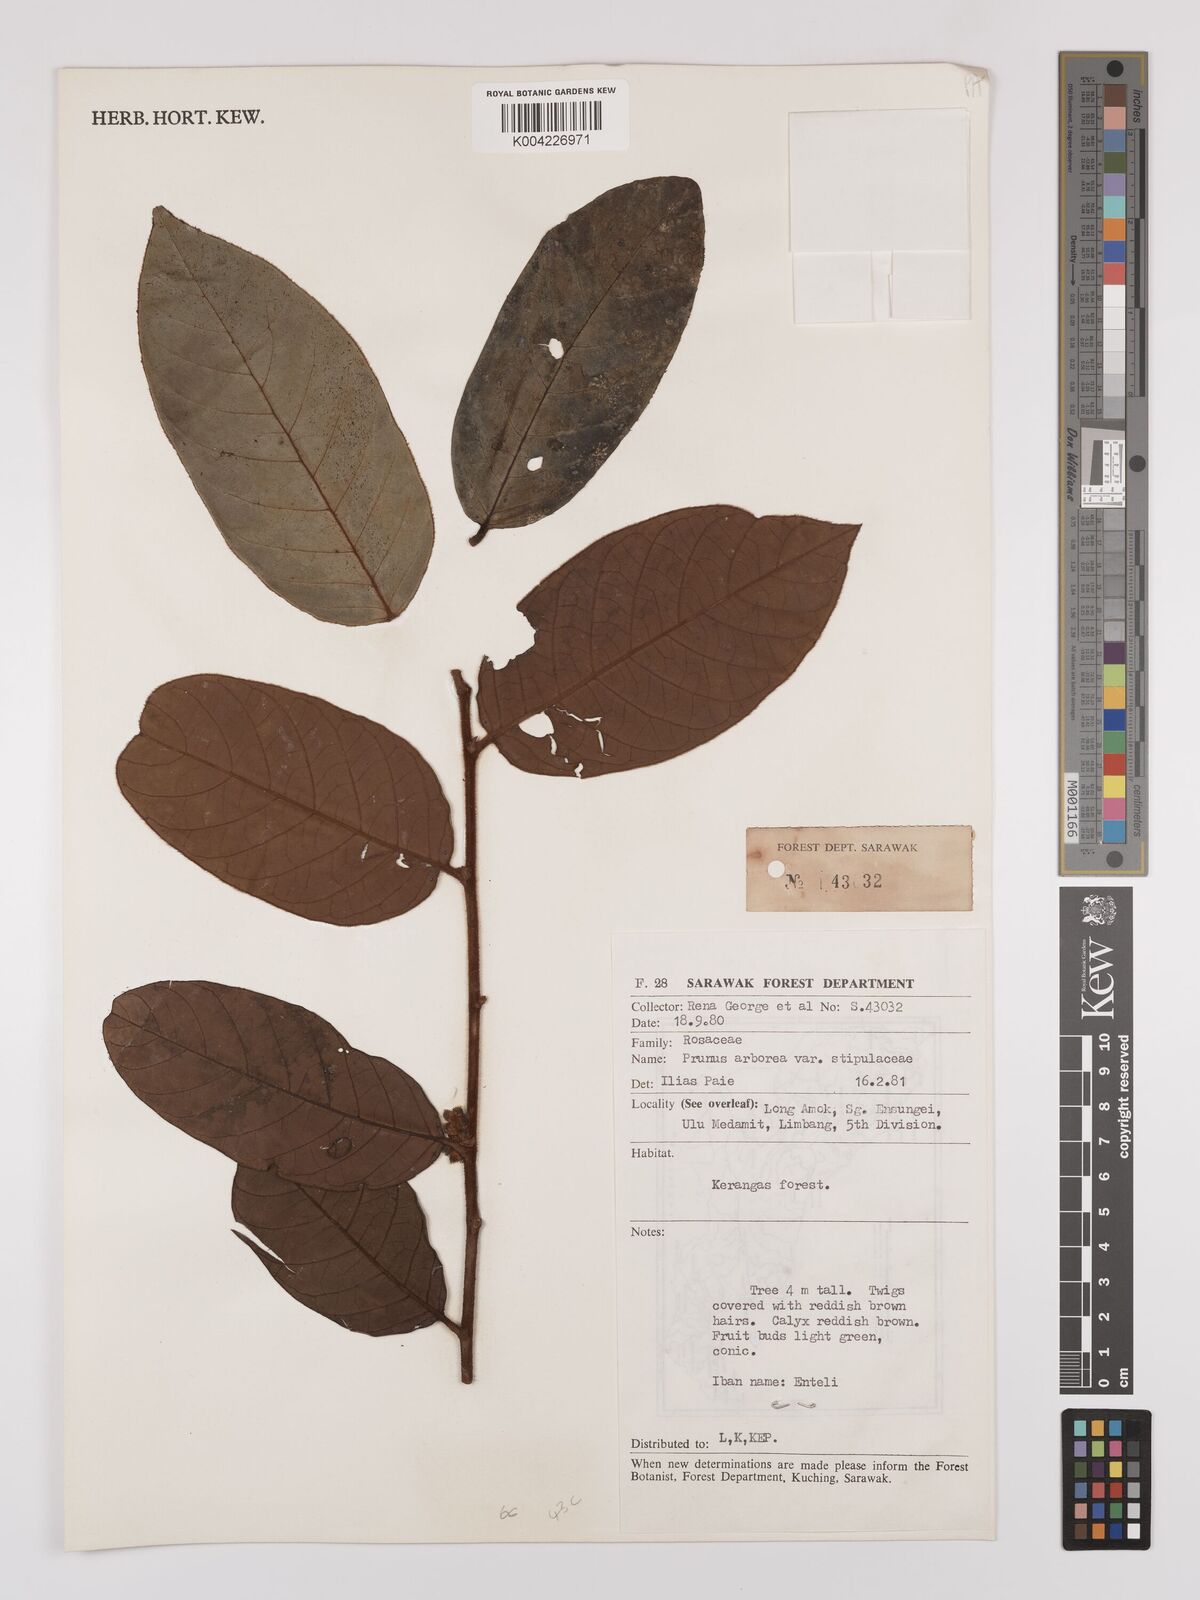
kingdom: Plantae
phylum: Tracheophyta
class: Magnoliopsida
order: Rosales
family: Rosaceae
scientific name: Rosaceae
